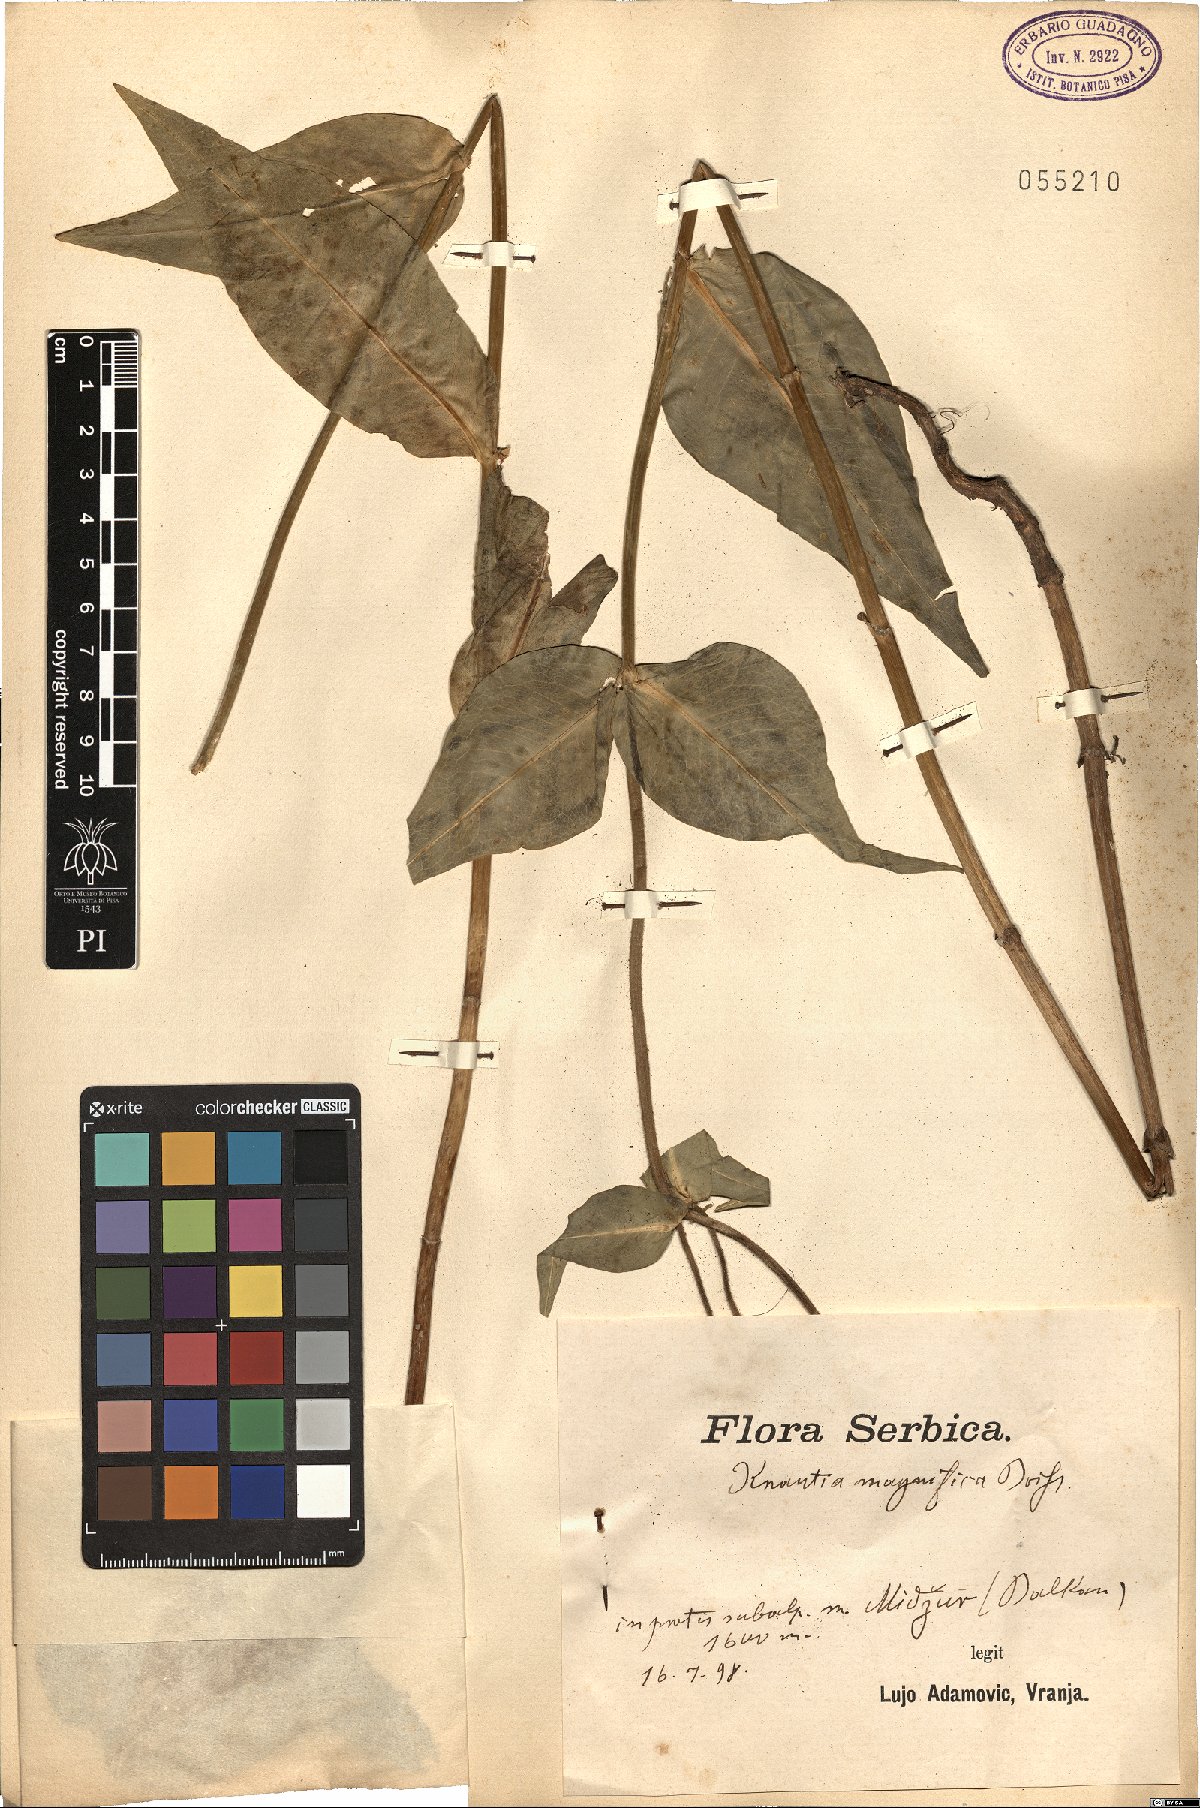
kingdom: Plantae
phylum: Tracheophyta
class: Magnoliopsida
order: Dipsacales
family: Caprifoliaceae
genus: Knautia
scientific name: Knautia magnifica
